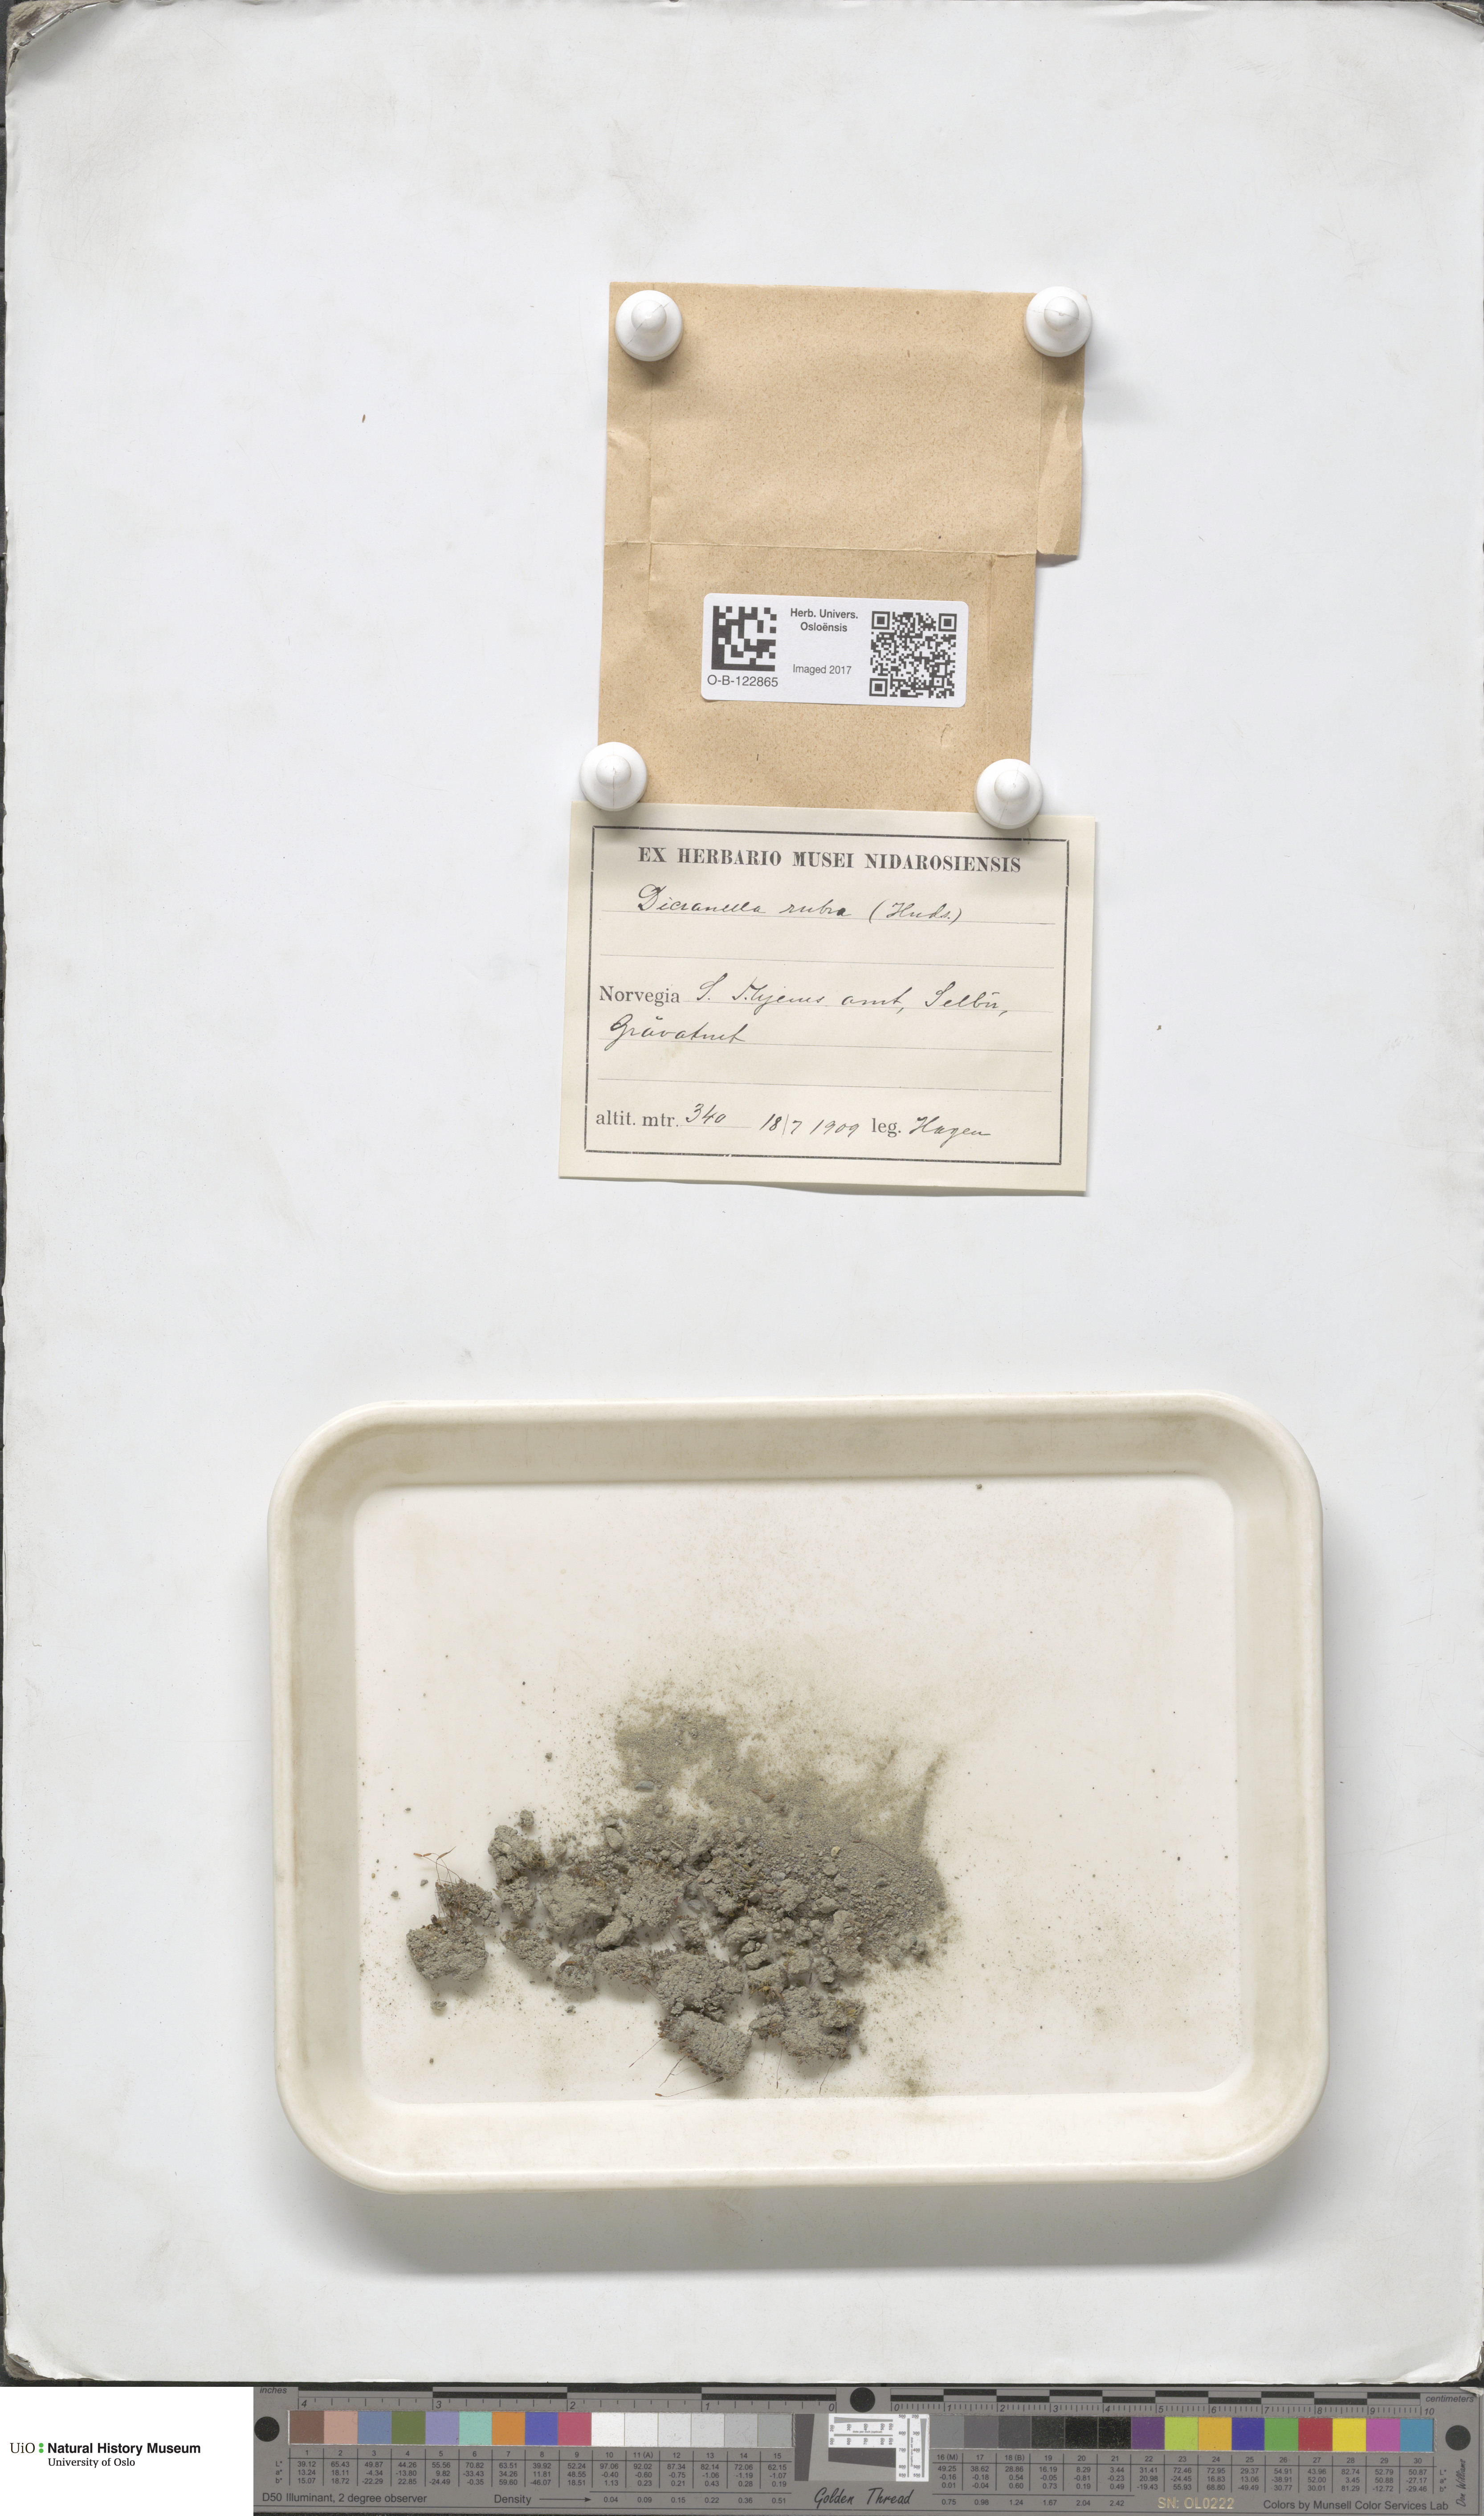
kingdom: Plantae
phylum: Bryophyta
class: Bryopsida
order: Dicranales
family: Dicranellaceae
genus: Dicranella
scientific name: Dicranella varia
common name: Variable forklet moss
